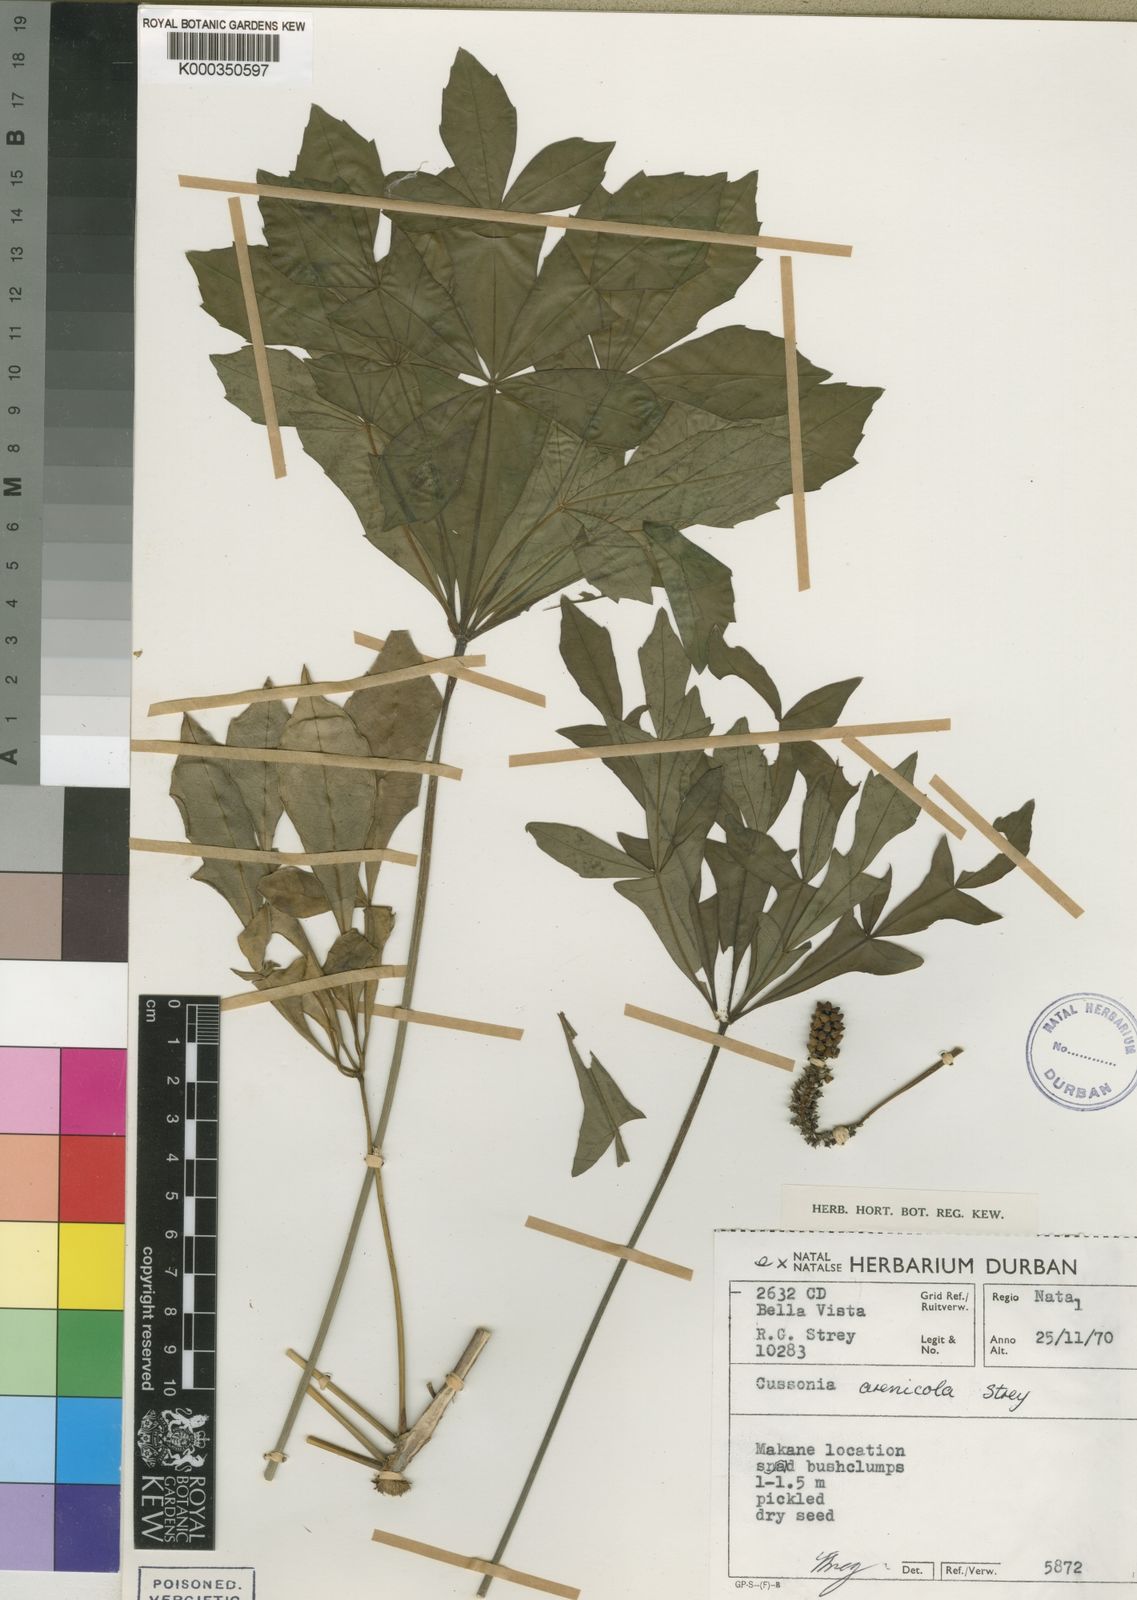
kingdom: Plantae
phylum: Tracheophyta
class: Magnoliopsida
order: Apiales
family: Araliaceae
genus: Cussonia
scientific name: Cussonia arenicola
